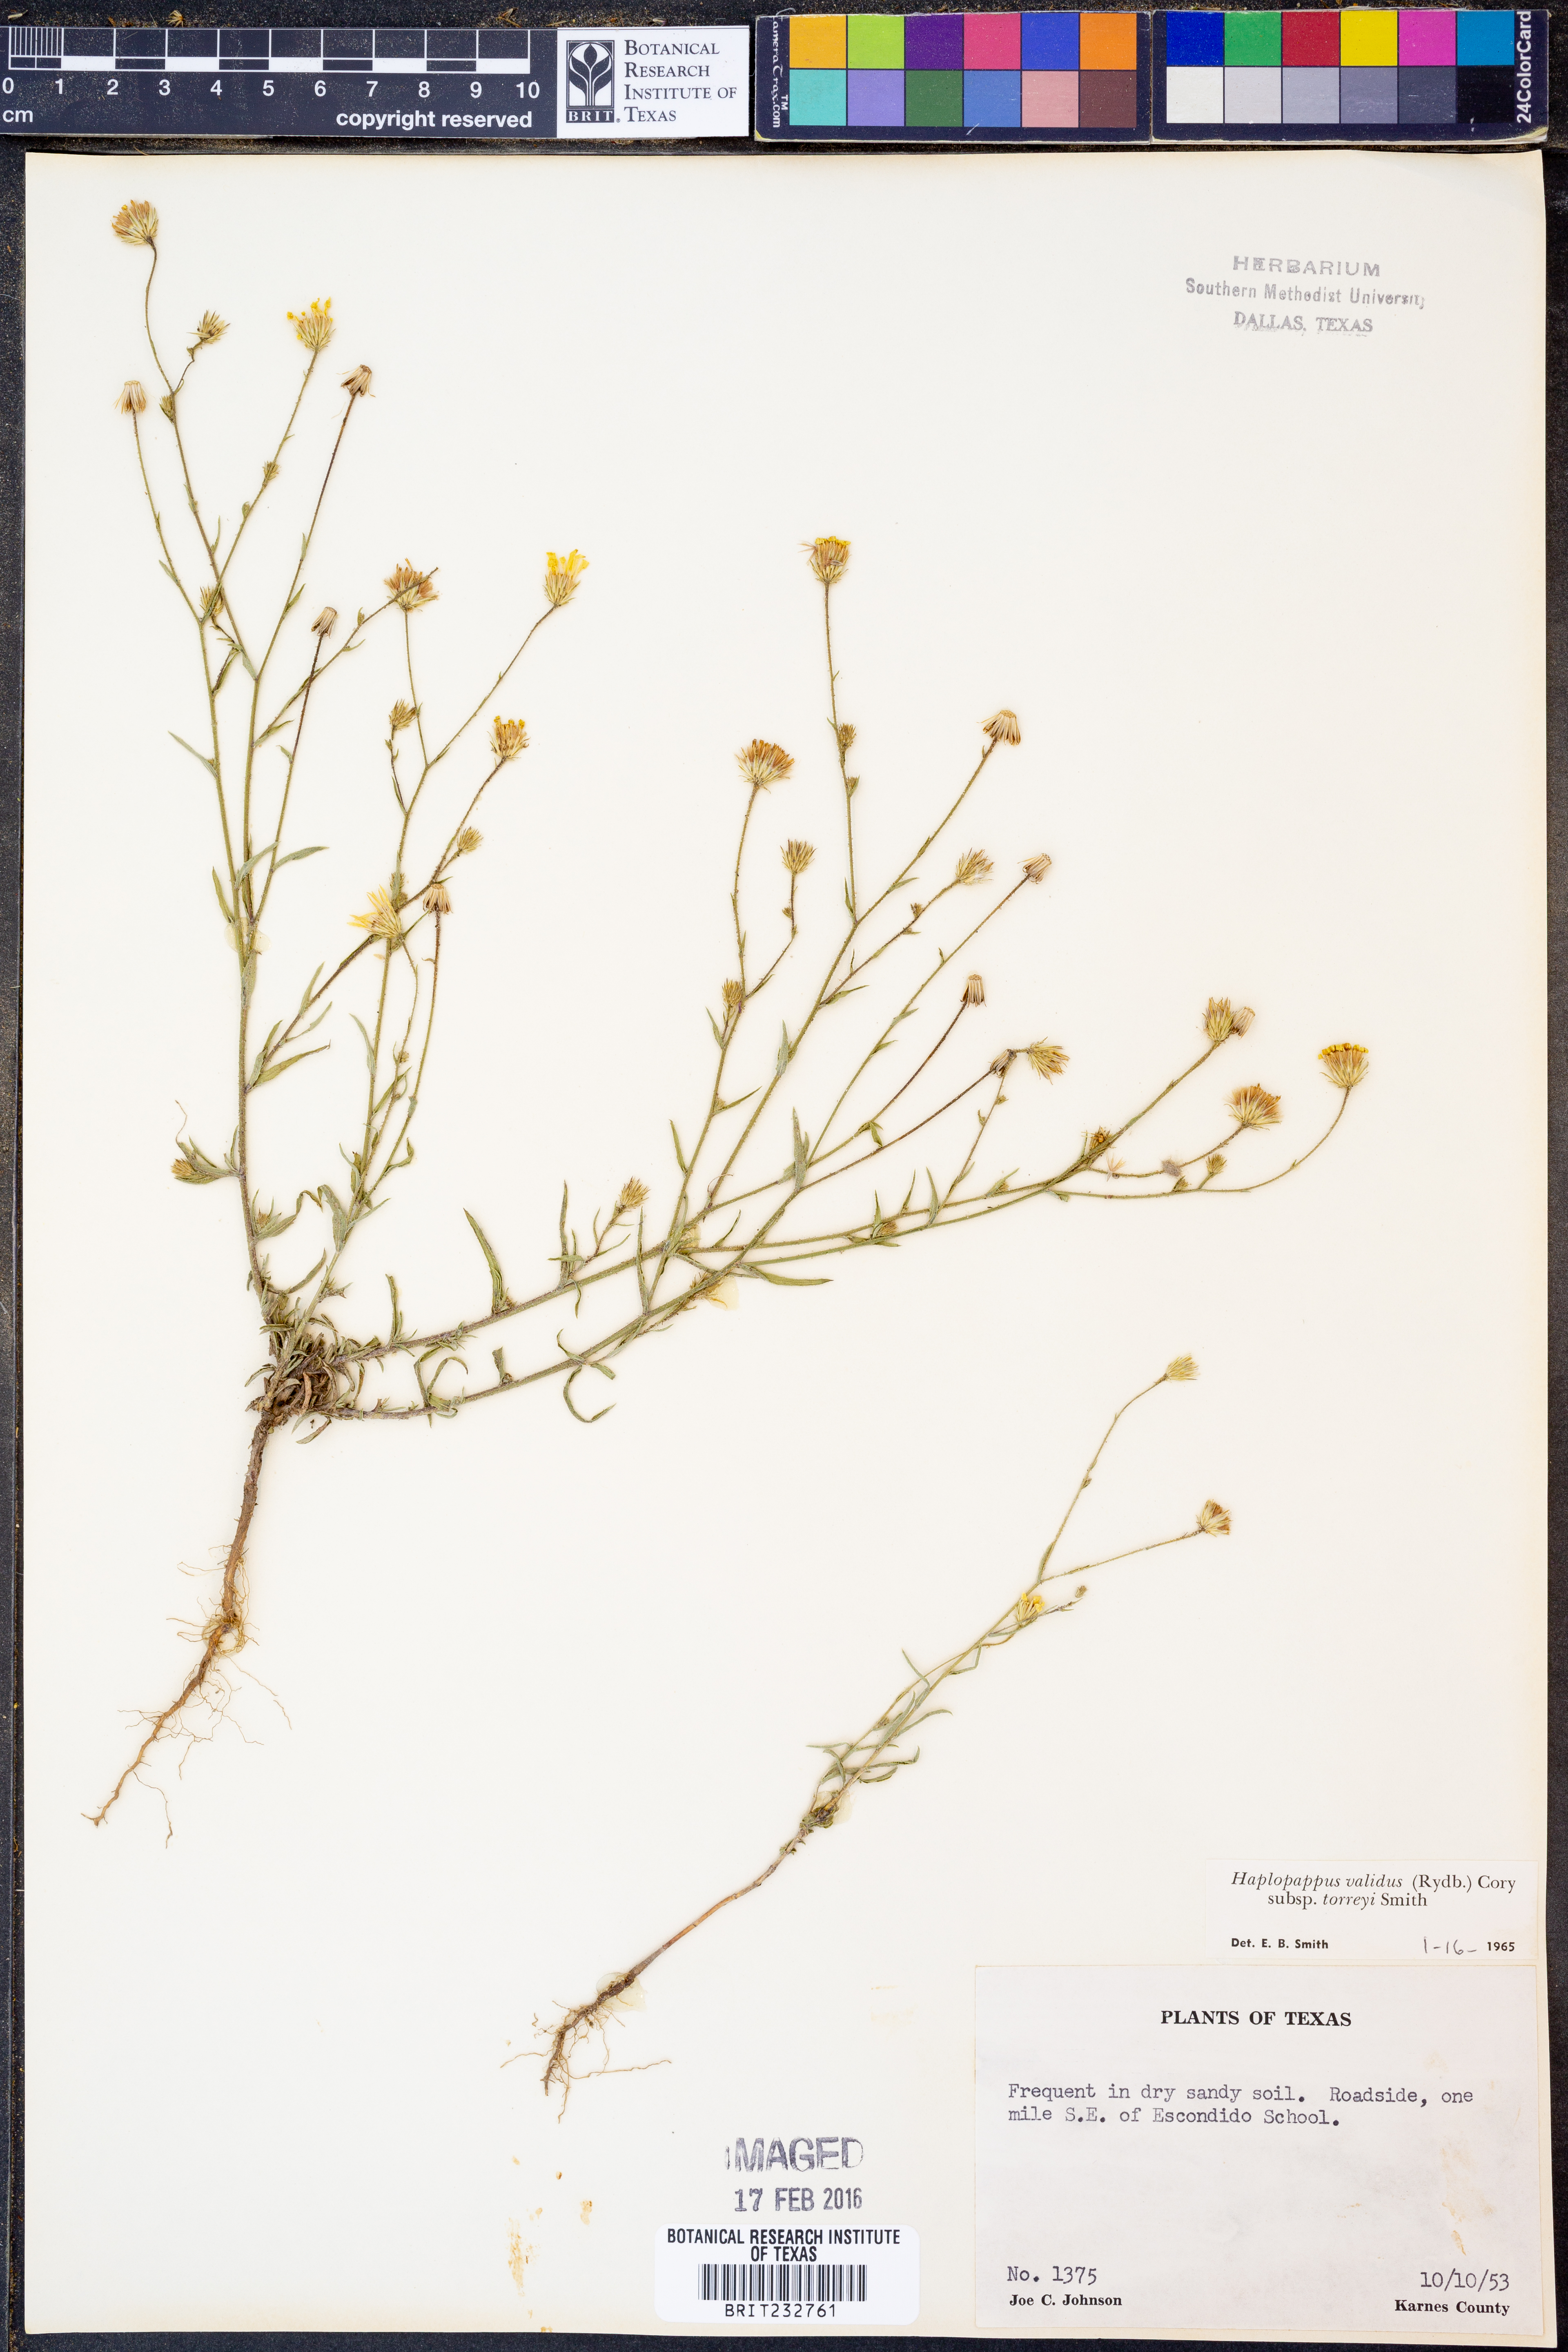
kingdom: Plantae
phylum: Tracheophyta
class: Magnoliopsida
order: Asterales
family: Asteraceae
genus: Croptilon
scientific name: Croptilon hookerianum
